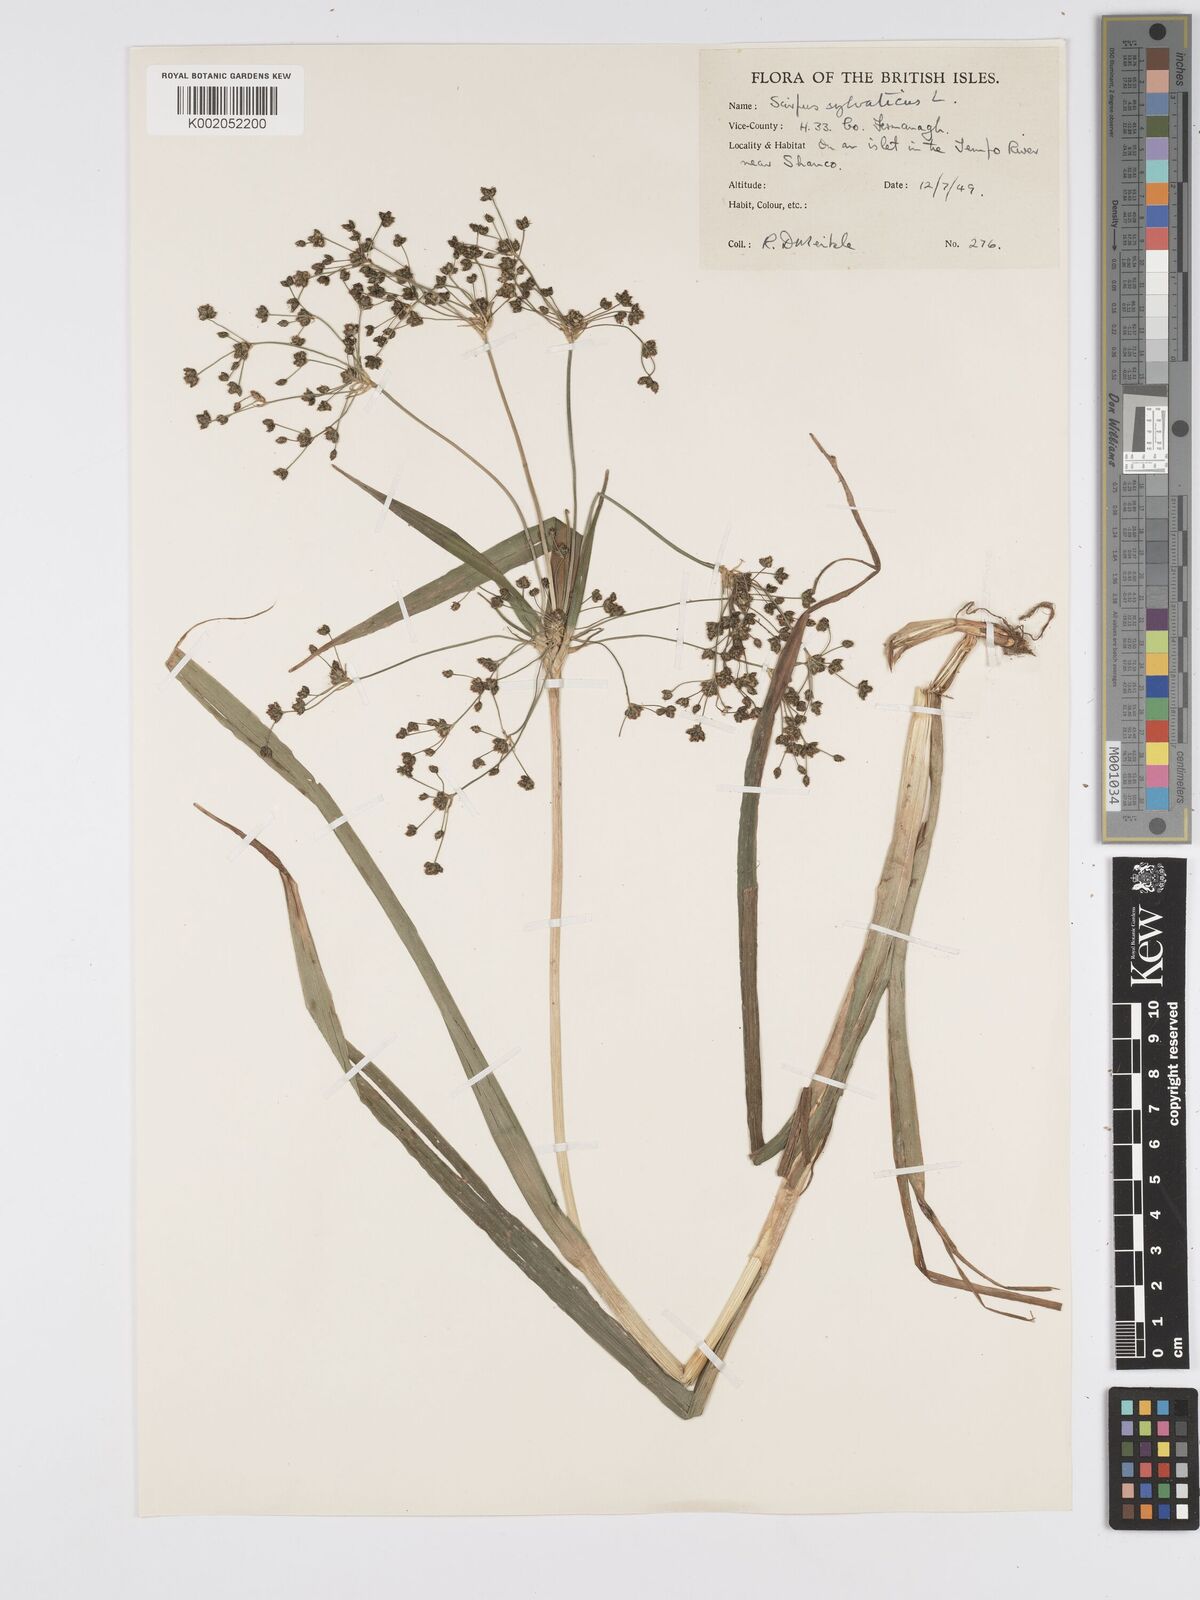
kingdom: Plantae
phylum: Tracheophyta
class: Liliopsida
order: Poales
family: Cyperaceae
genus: Scirpus
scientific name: Scirpus sylvaticus
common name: Wood club-rush
